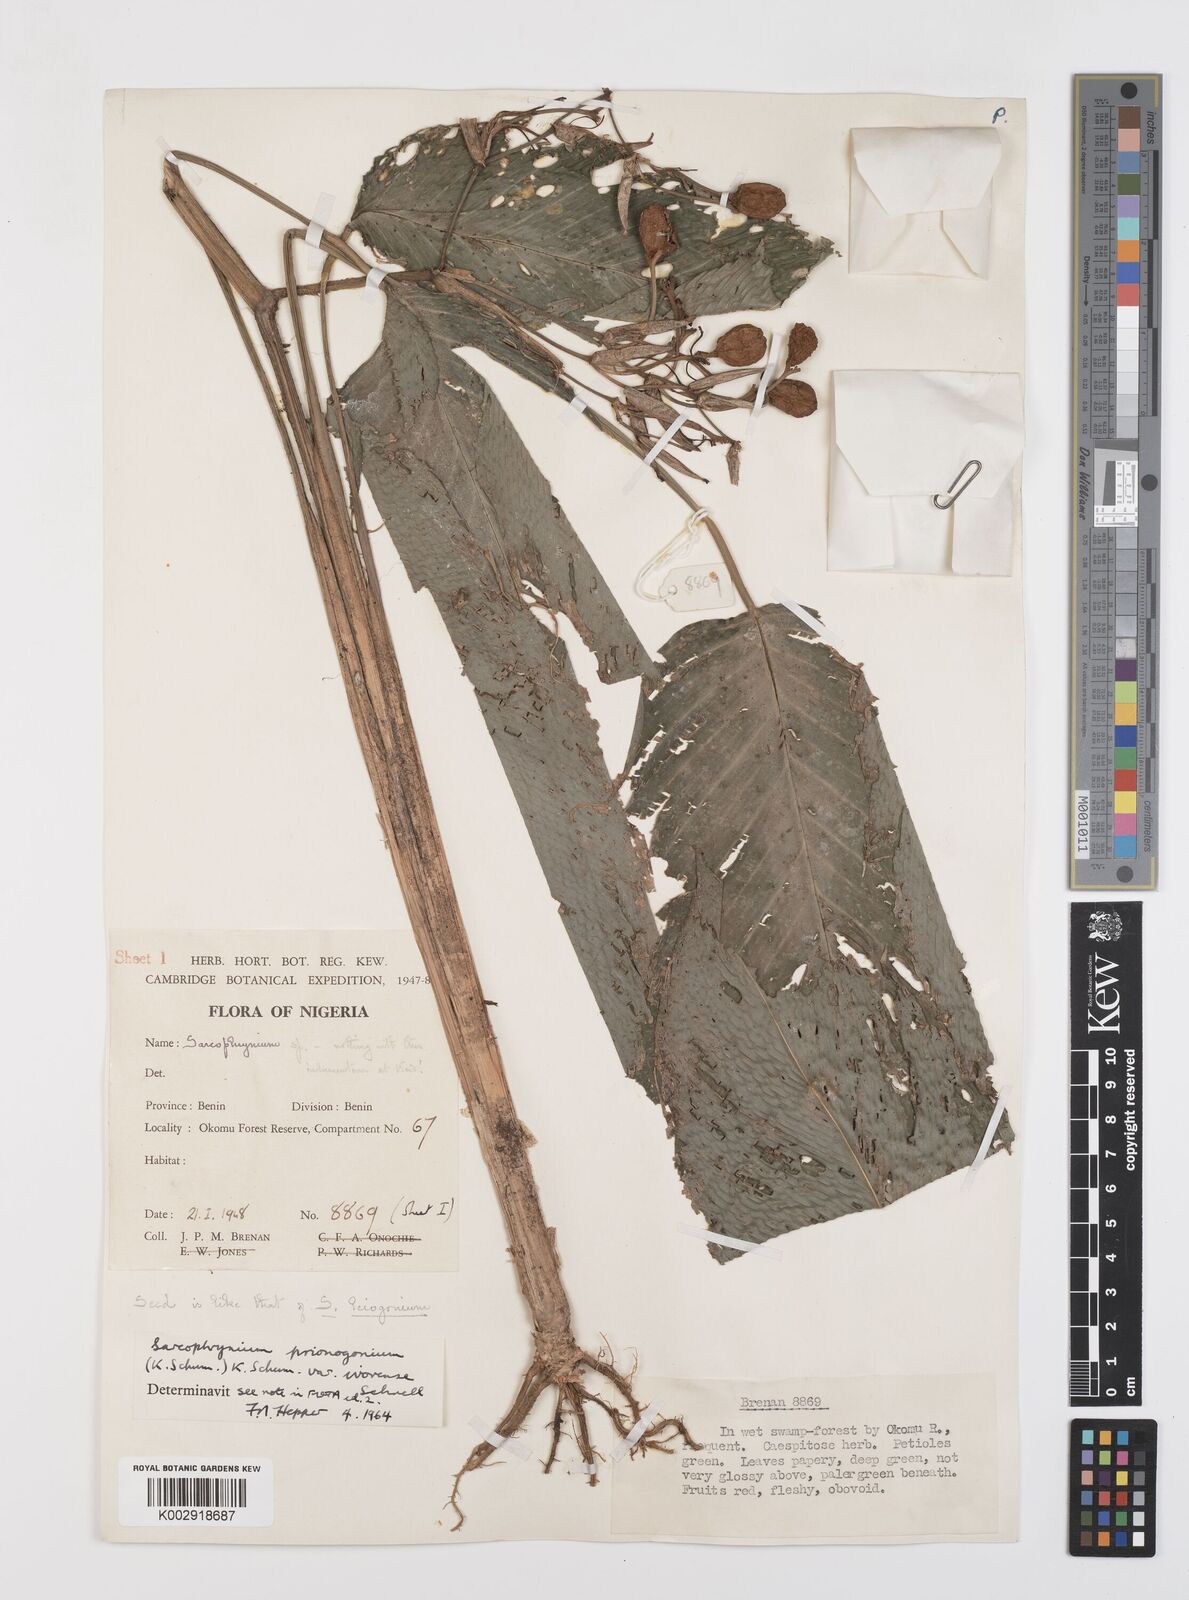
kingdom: Plantae
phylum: Tracheophyta
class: Liliopsida
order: Zingiberales
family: Marantaceae
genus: Sarcophrynium
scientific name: Sarcophrynium prionogonium
